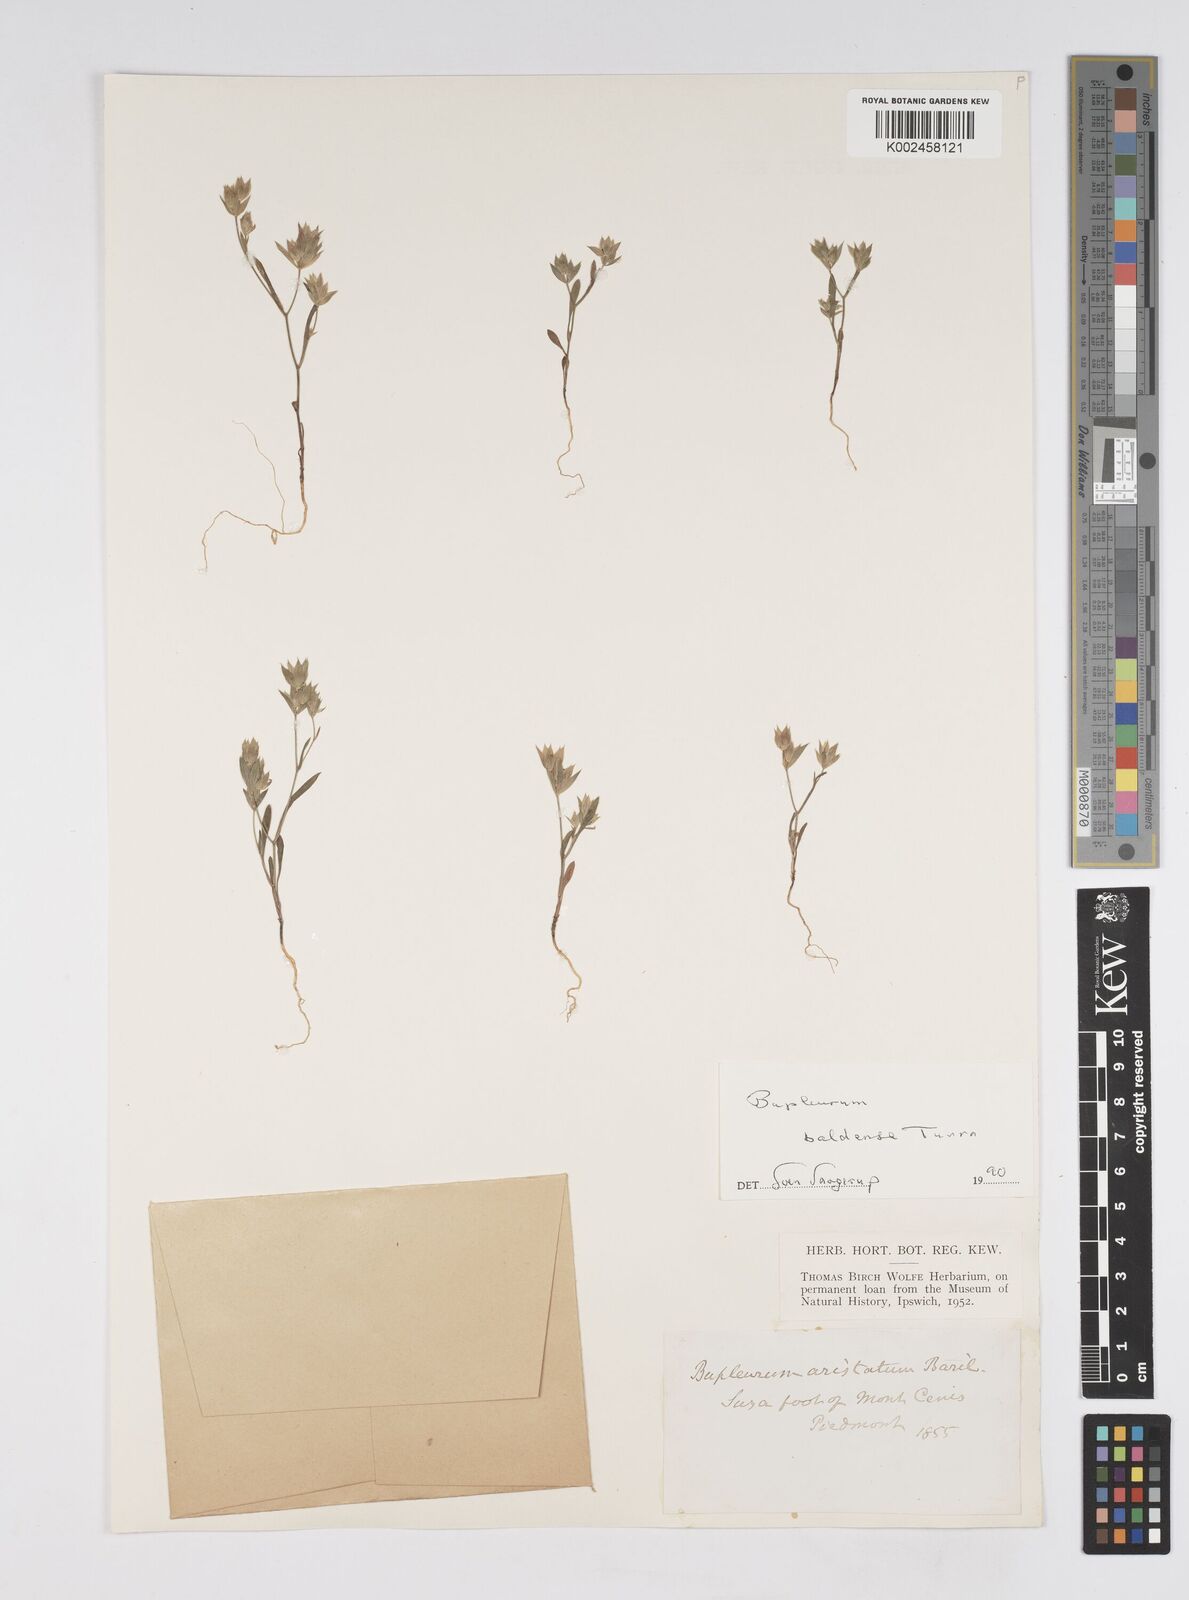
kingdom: Plantae
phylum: Tracheophyta
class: Magnoliopsida
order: Apiales
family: Apiaceae
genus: Bupleurum
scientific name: Bupleurum baldense
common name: Small hare's-ear
